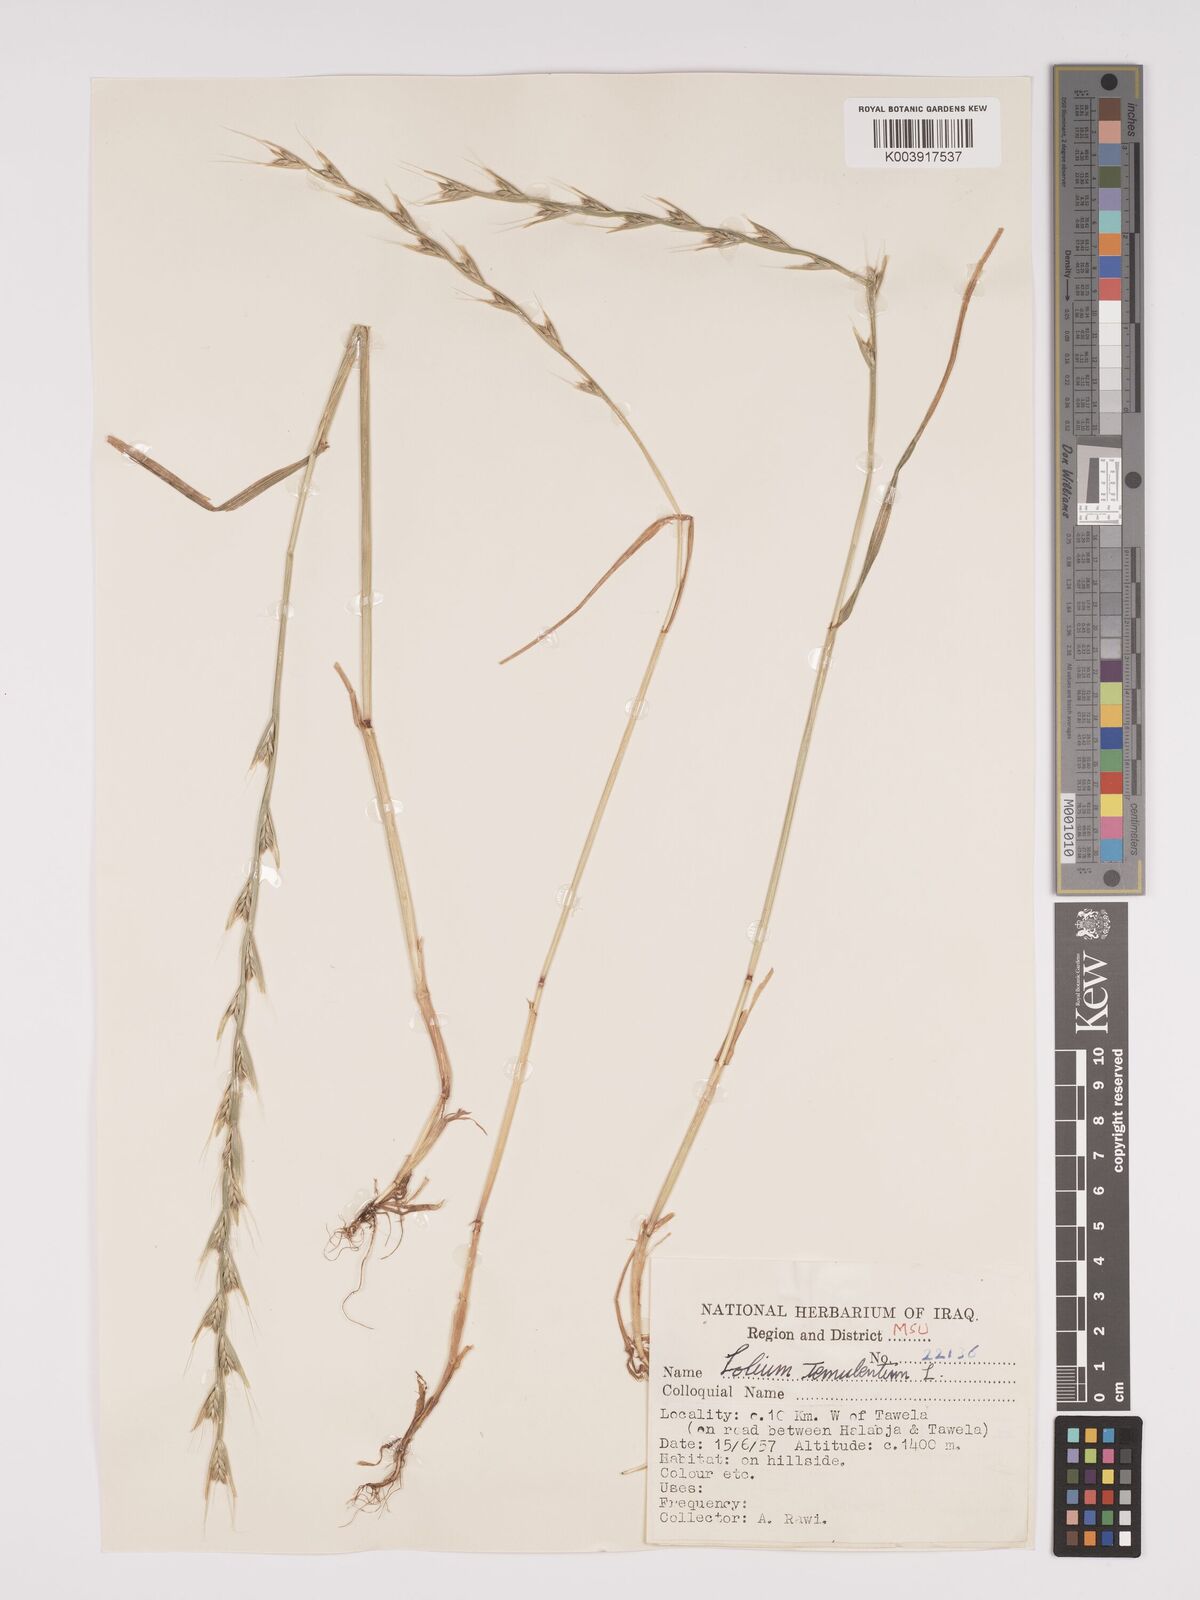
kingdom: Plantae
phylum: Tracheophyta
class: Liliopsida
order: Poales
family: Poaceae
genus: Lolium
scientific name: Lolium temulentum
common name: Darnel
